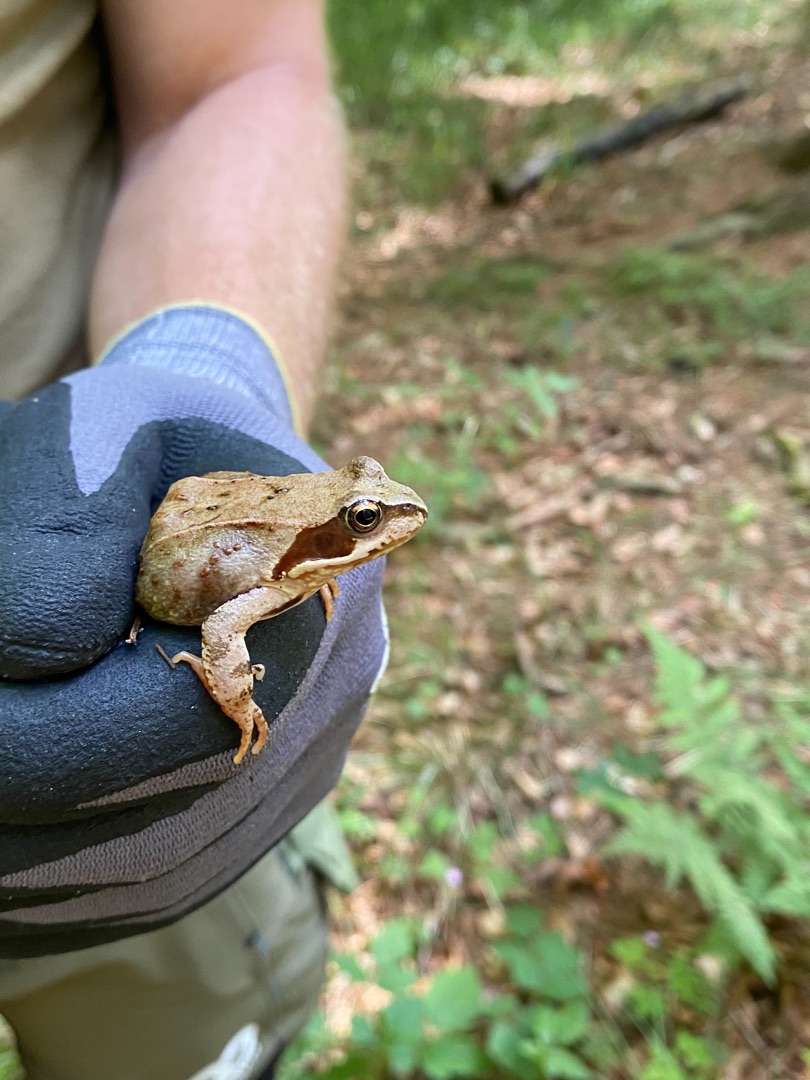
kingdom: Animalia
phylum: Chordata
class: Amphibia
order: Anura
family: Ranidae
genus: Rana
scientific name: Rana temporaria
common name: Butsnudet frø
